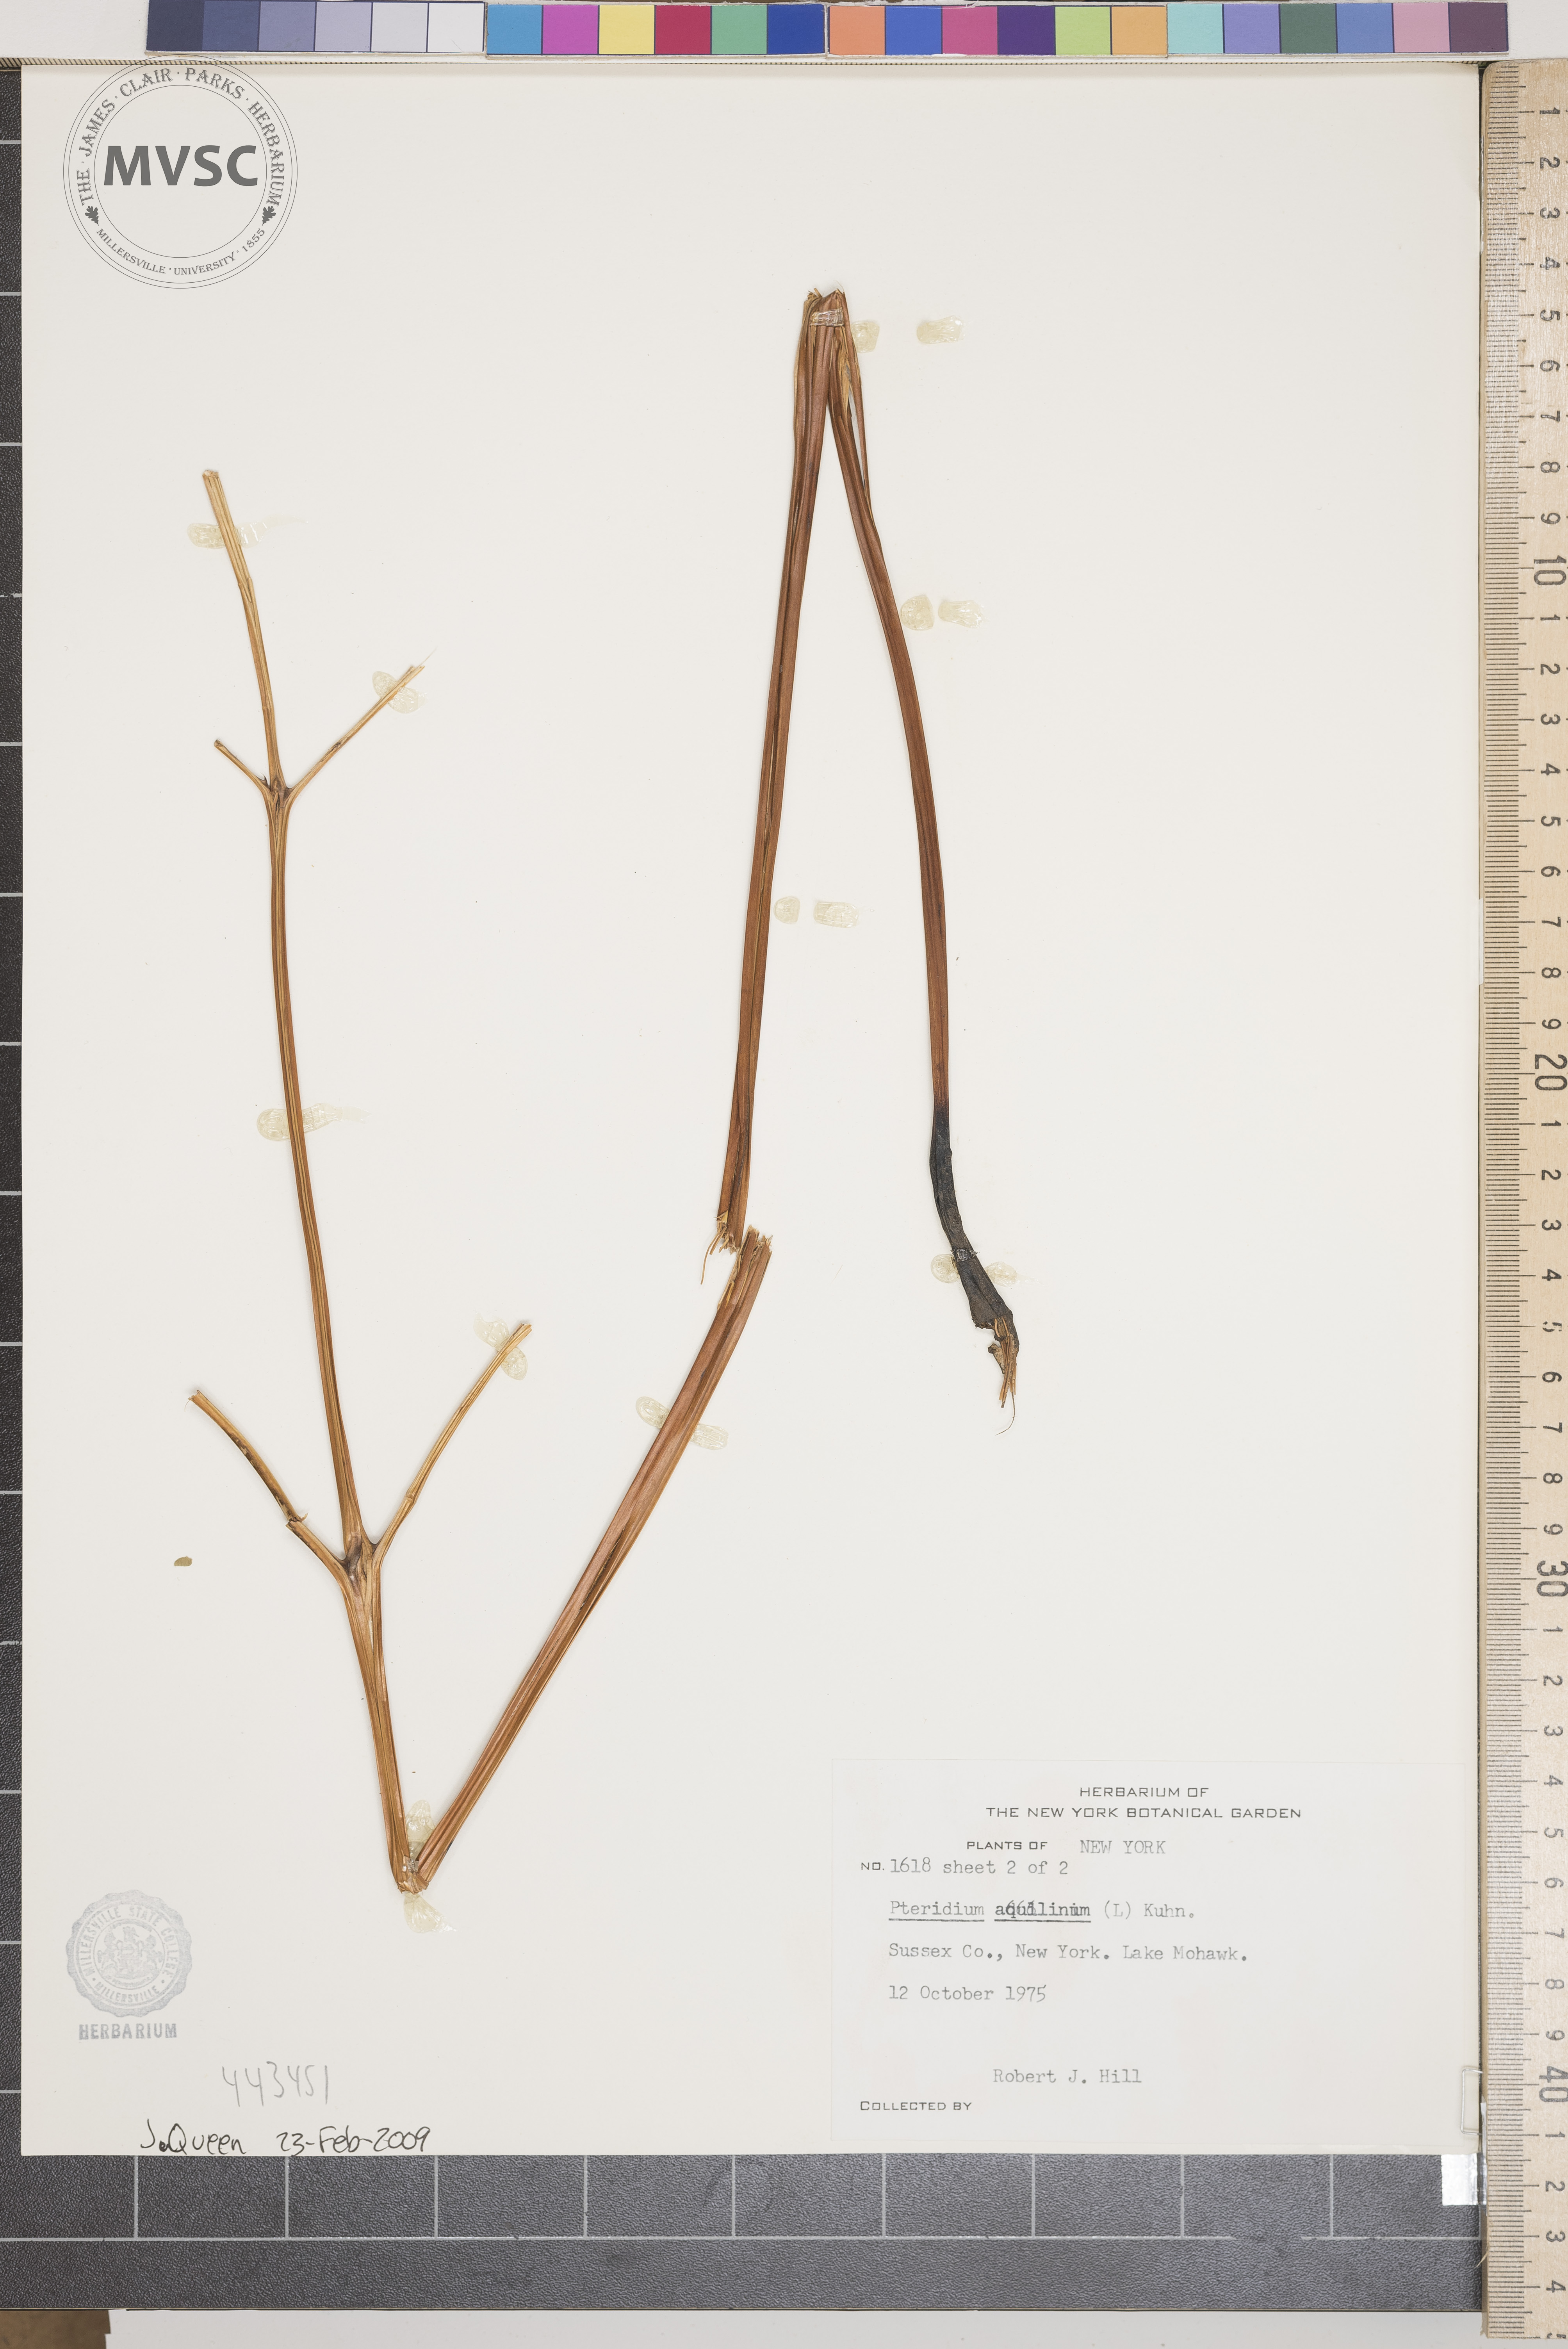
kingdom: Plantae
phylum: Tracheophyta
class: Polypodiopsida
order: Polypodiales
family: Dennstaedtiaceae
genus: Pteridium
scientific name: Pteridium aquilinum
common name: Bracken
